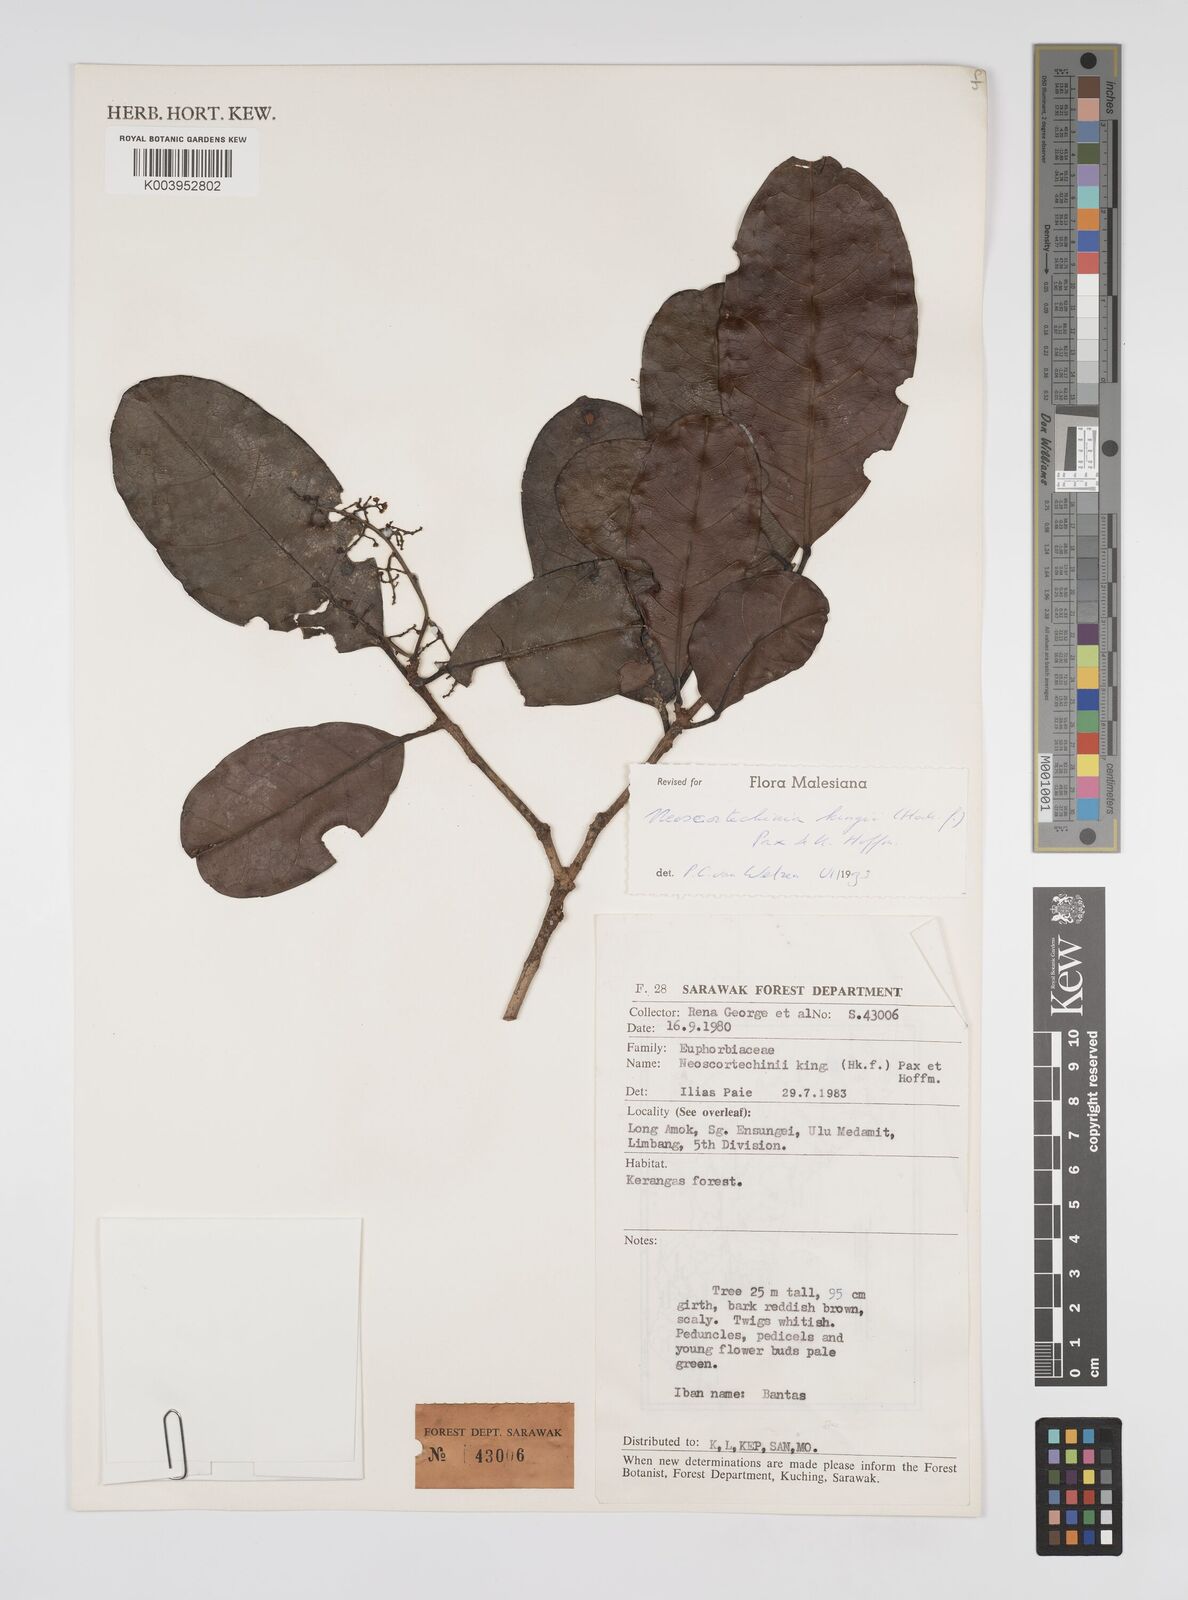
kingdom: Plantae
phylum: Tracheophyta
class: Magnoliopsida
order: Malpighiales
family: Euphorbiaceae
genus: Neoscortechinia
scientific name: Neoscortechinia kingii
